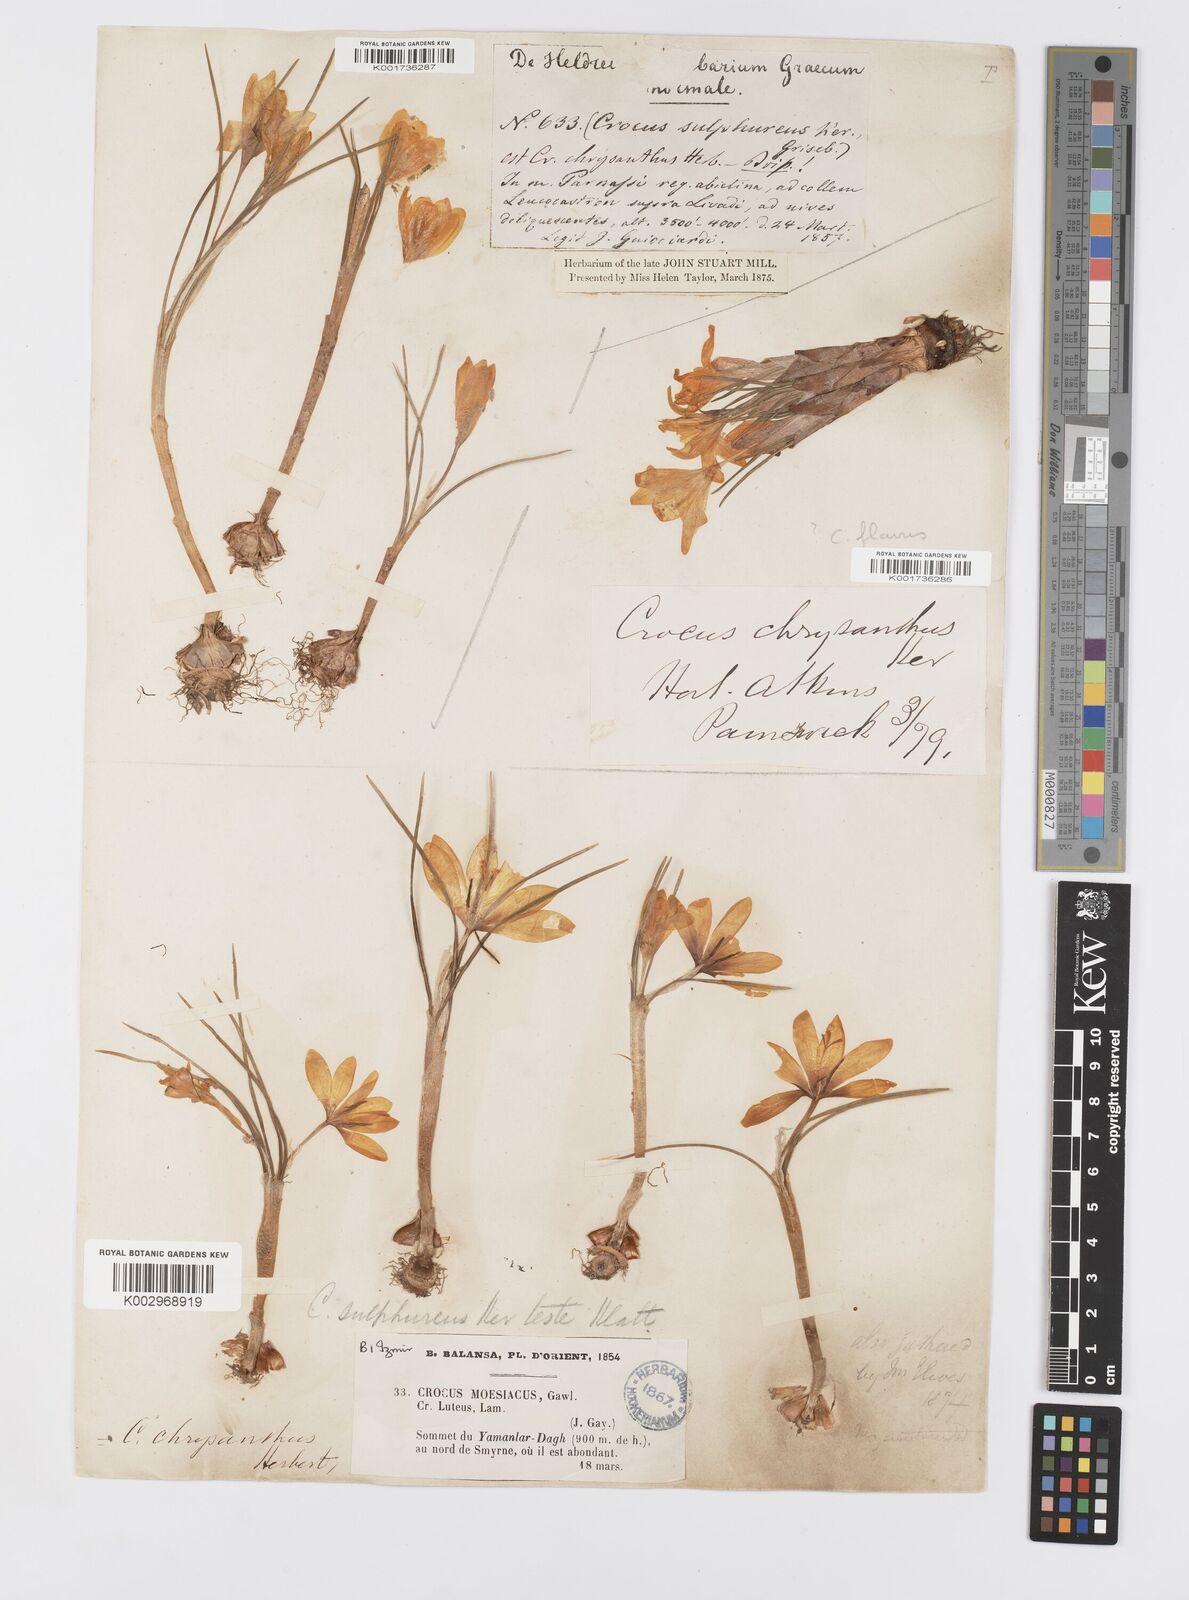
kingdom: Plantae
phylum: Tracheophyta
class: Liliopsida
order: Asparagales
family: Iridaceae
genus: Crocus
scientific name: Crocus
